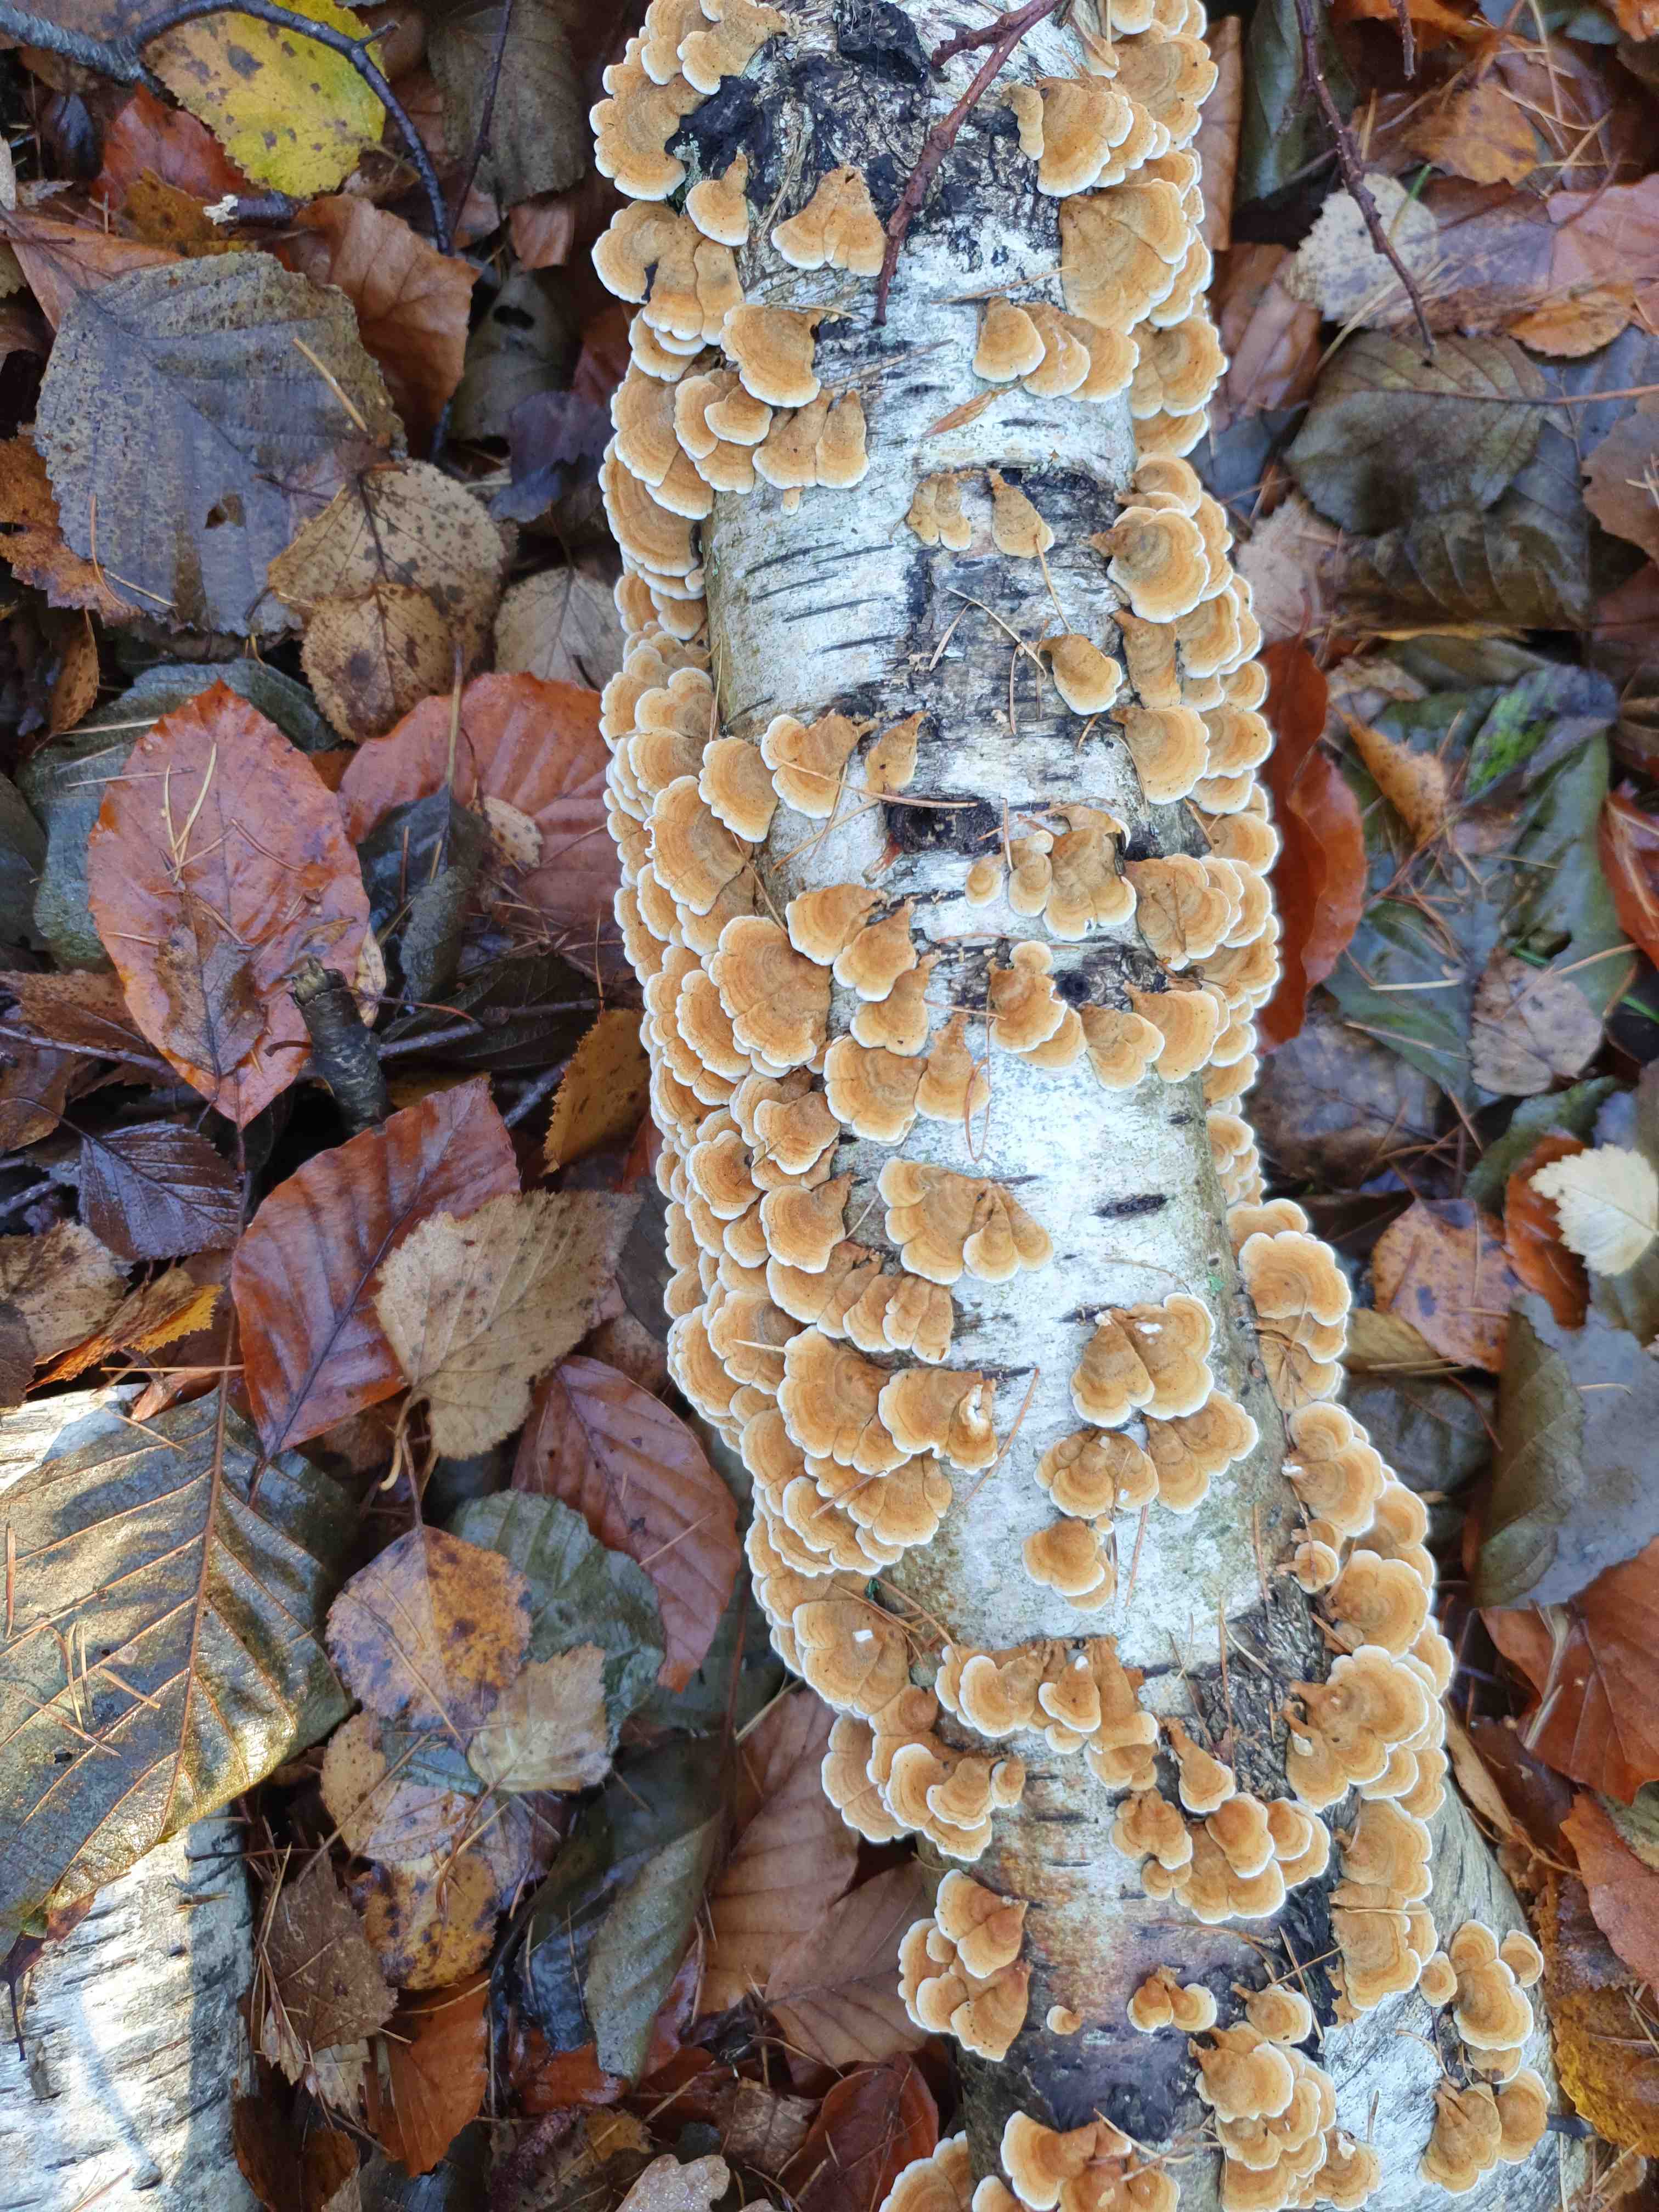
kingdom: Fungi
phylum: Basidiomycota
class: Agaricomycetes
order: Amylocorticiales
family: Amylocorticiaceae
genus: Plicaturopsis
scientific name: Plicaturopsis crispa
